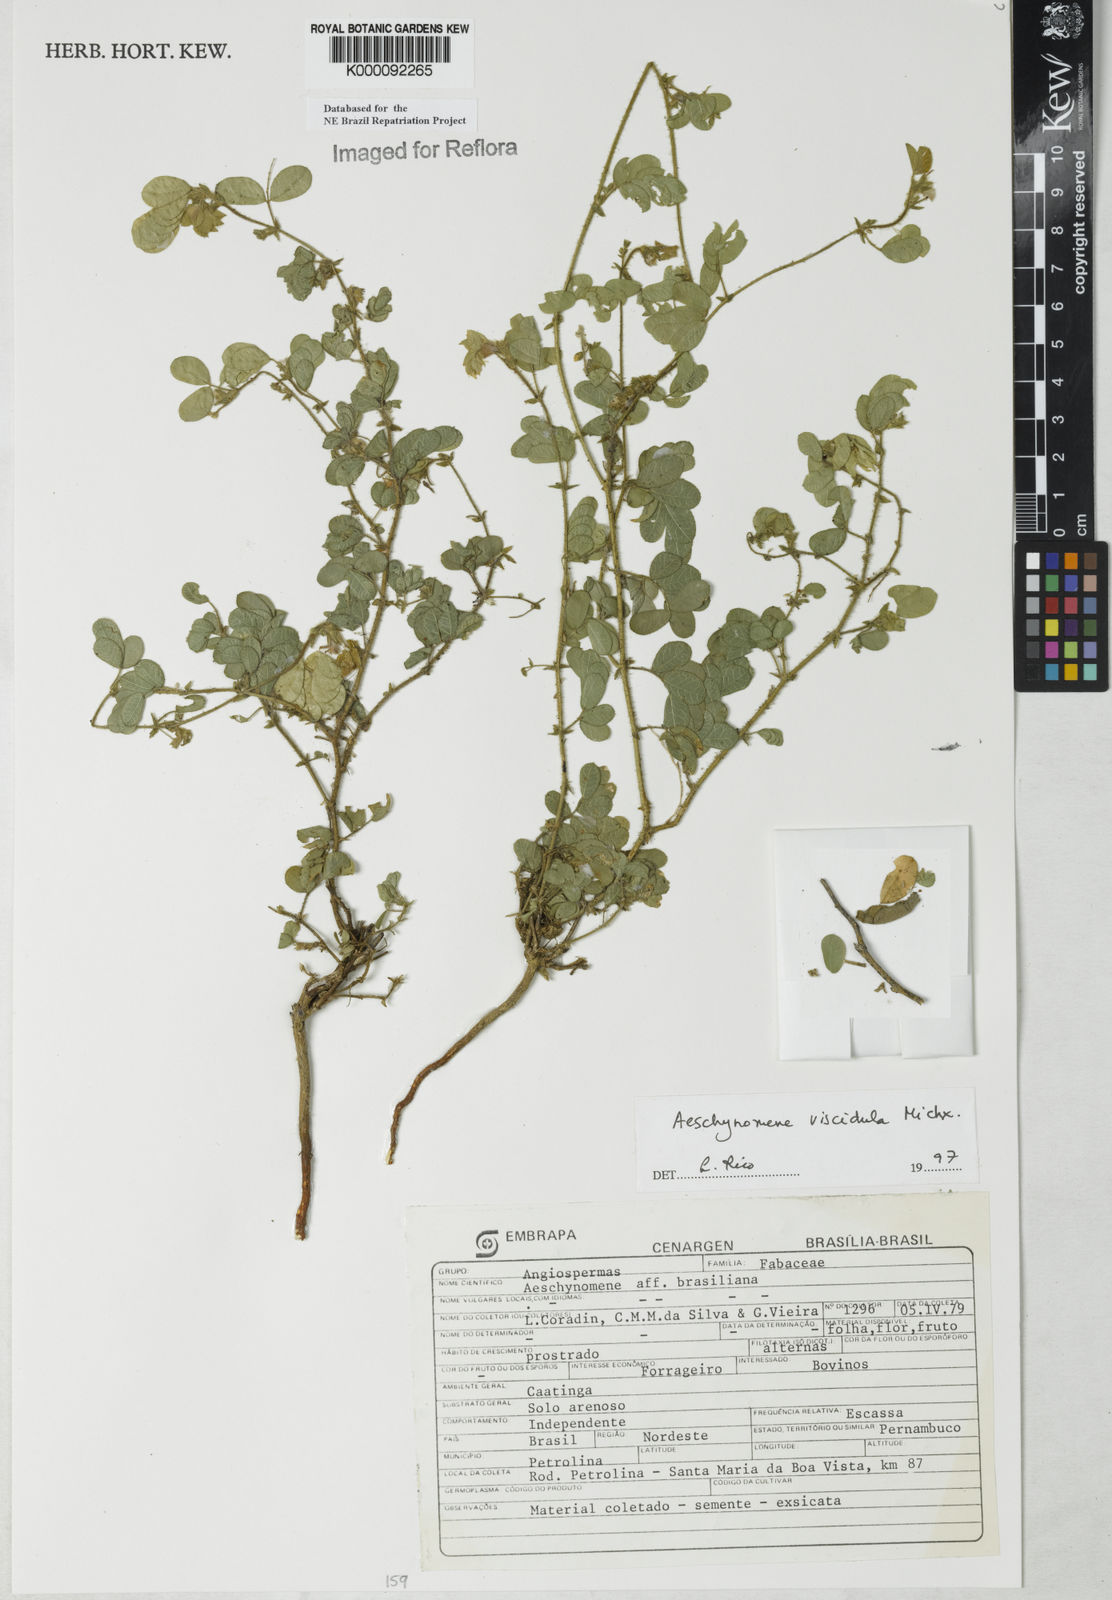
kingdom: Plantae
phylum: Tracheophyta
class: Magnoliopsida
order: Fabales
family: Fabaceae
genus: Ctenodon
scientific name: Ctenodon viscidulus
